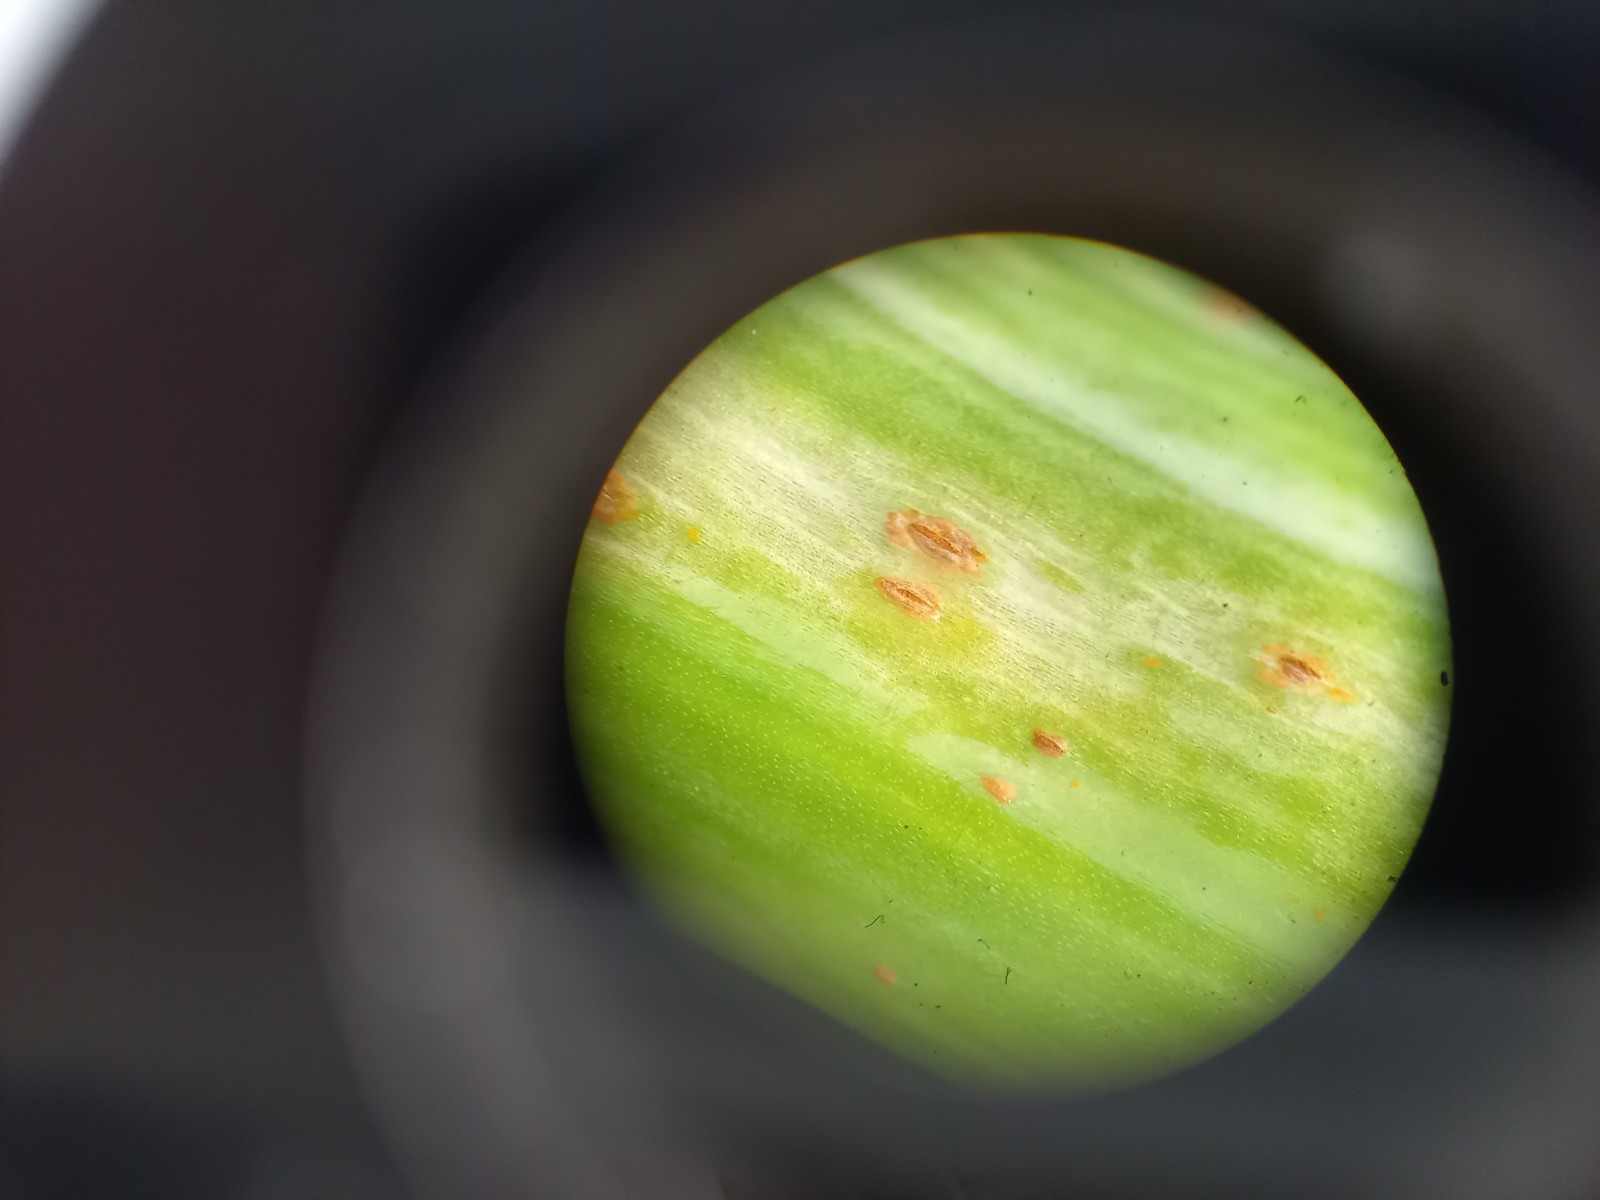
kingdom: Fungi
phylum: Basidiomycota
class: Pucciniomycetes
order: Pucciniales
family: Pucciniaceae
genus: Puccinia
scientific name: Puccinia
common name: tvecellerust
